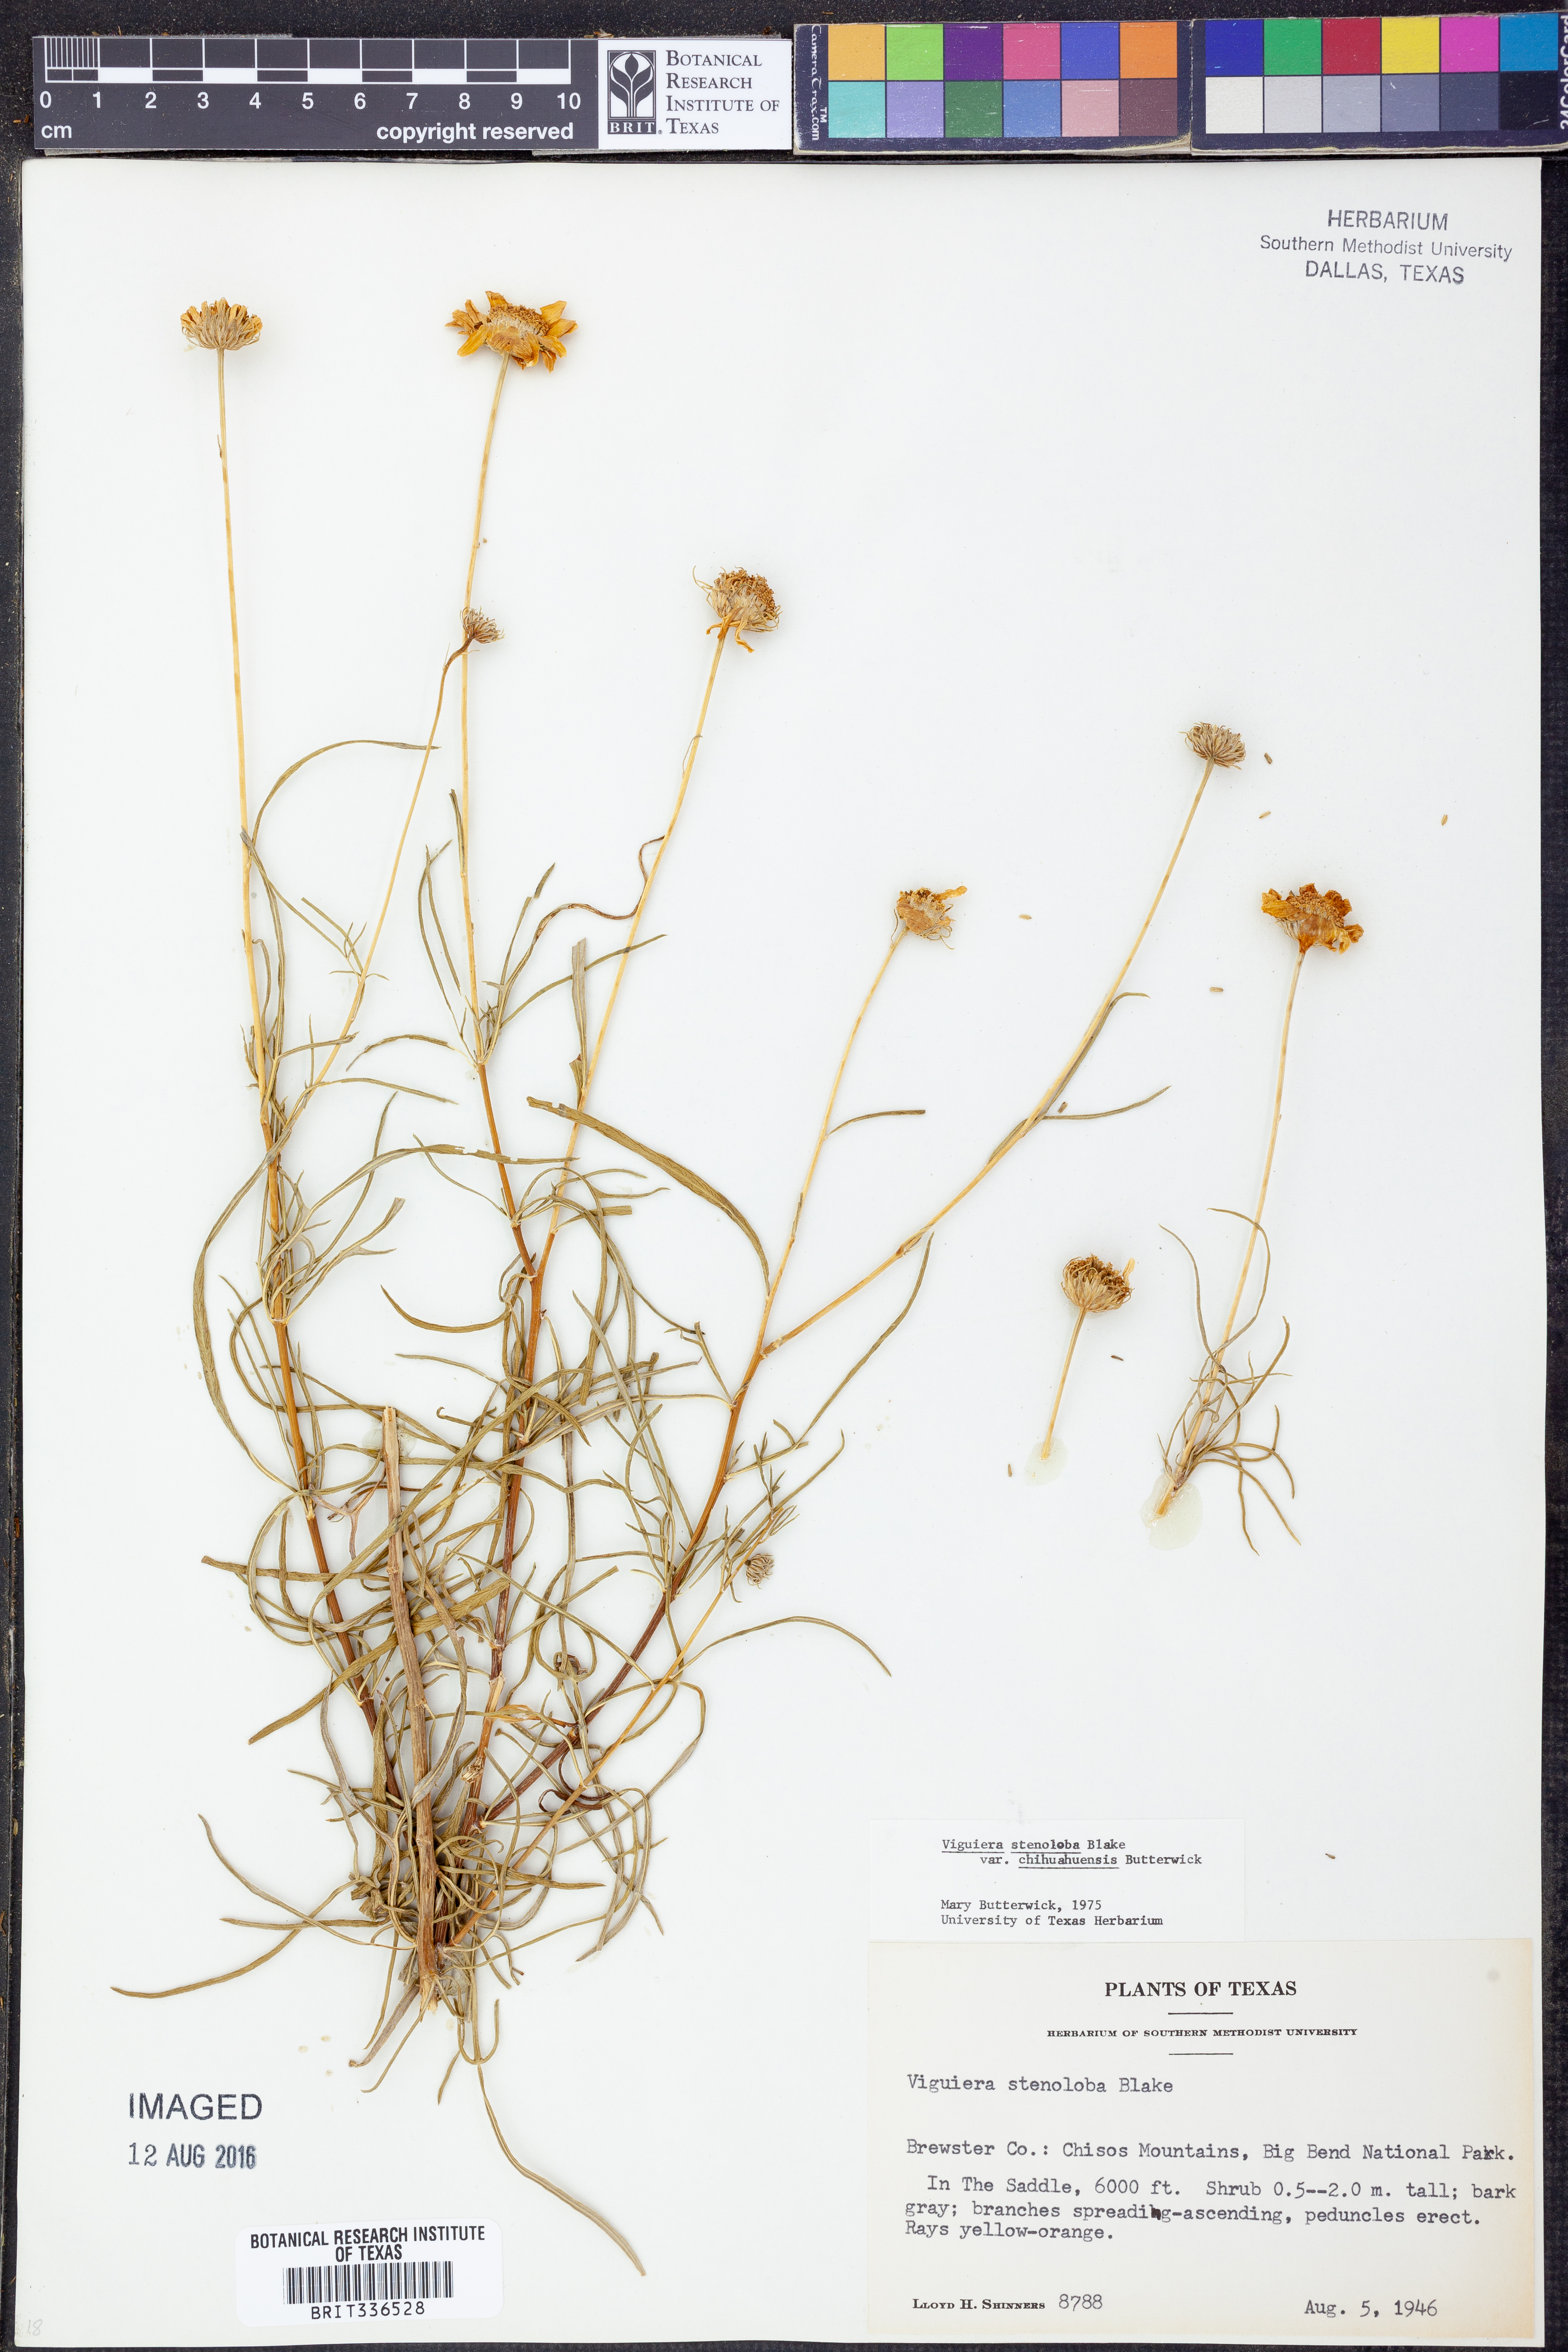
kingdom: Plantae
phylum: Tracheophyta
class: Magnoliopsida
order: Asterales
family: Asteraceae
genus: Sidneya
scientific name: Sidneya tenuifolia
